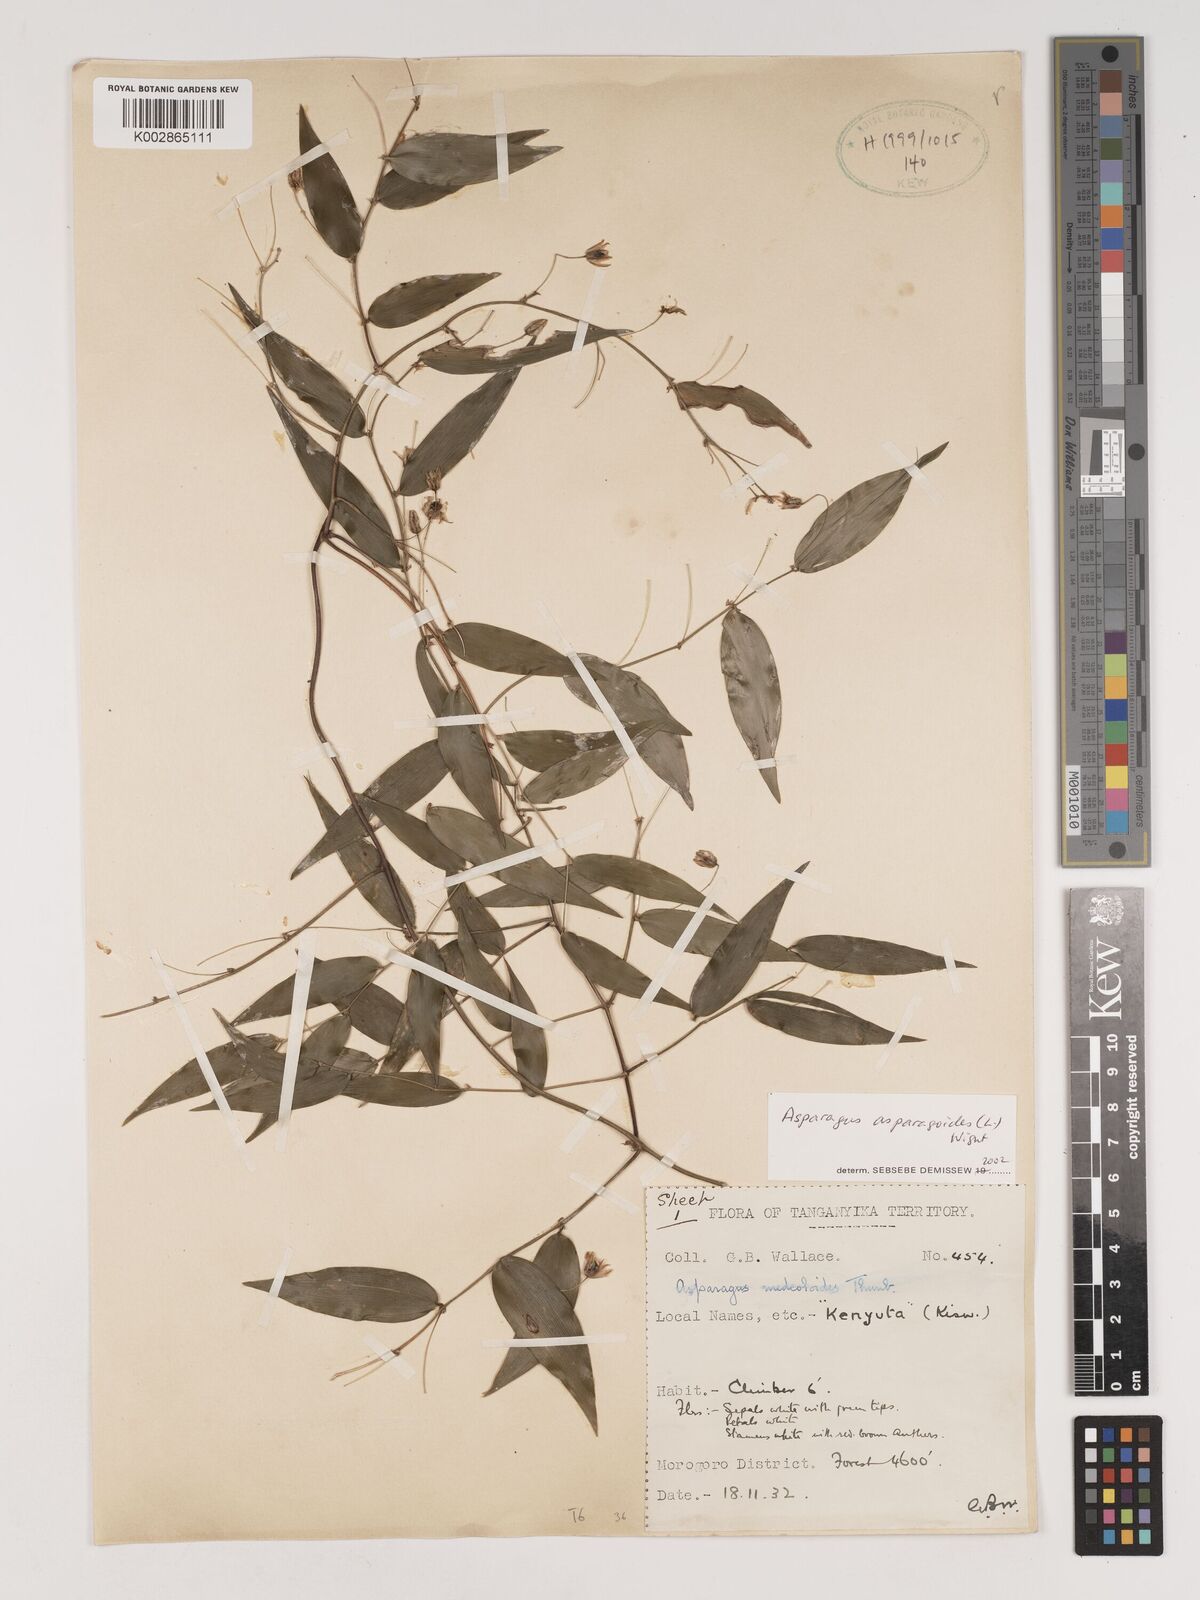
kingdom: Plantae
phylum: Tracheophyta
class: Liliopsida
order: Asparagales
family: Asparagaceae
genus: Asparagus
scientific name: Asparagus asparagoides
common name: African asparagus fern
